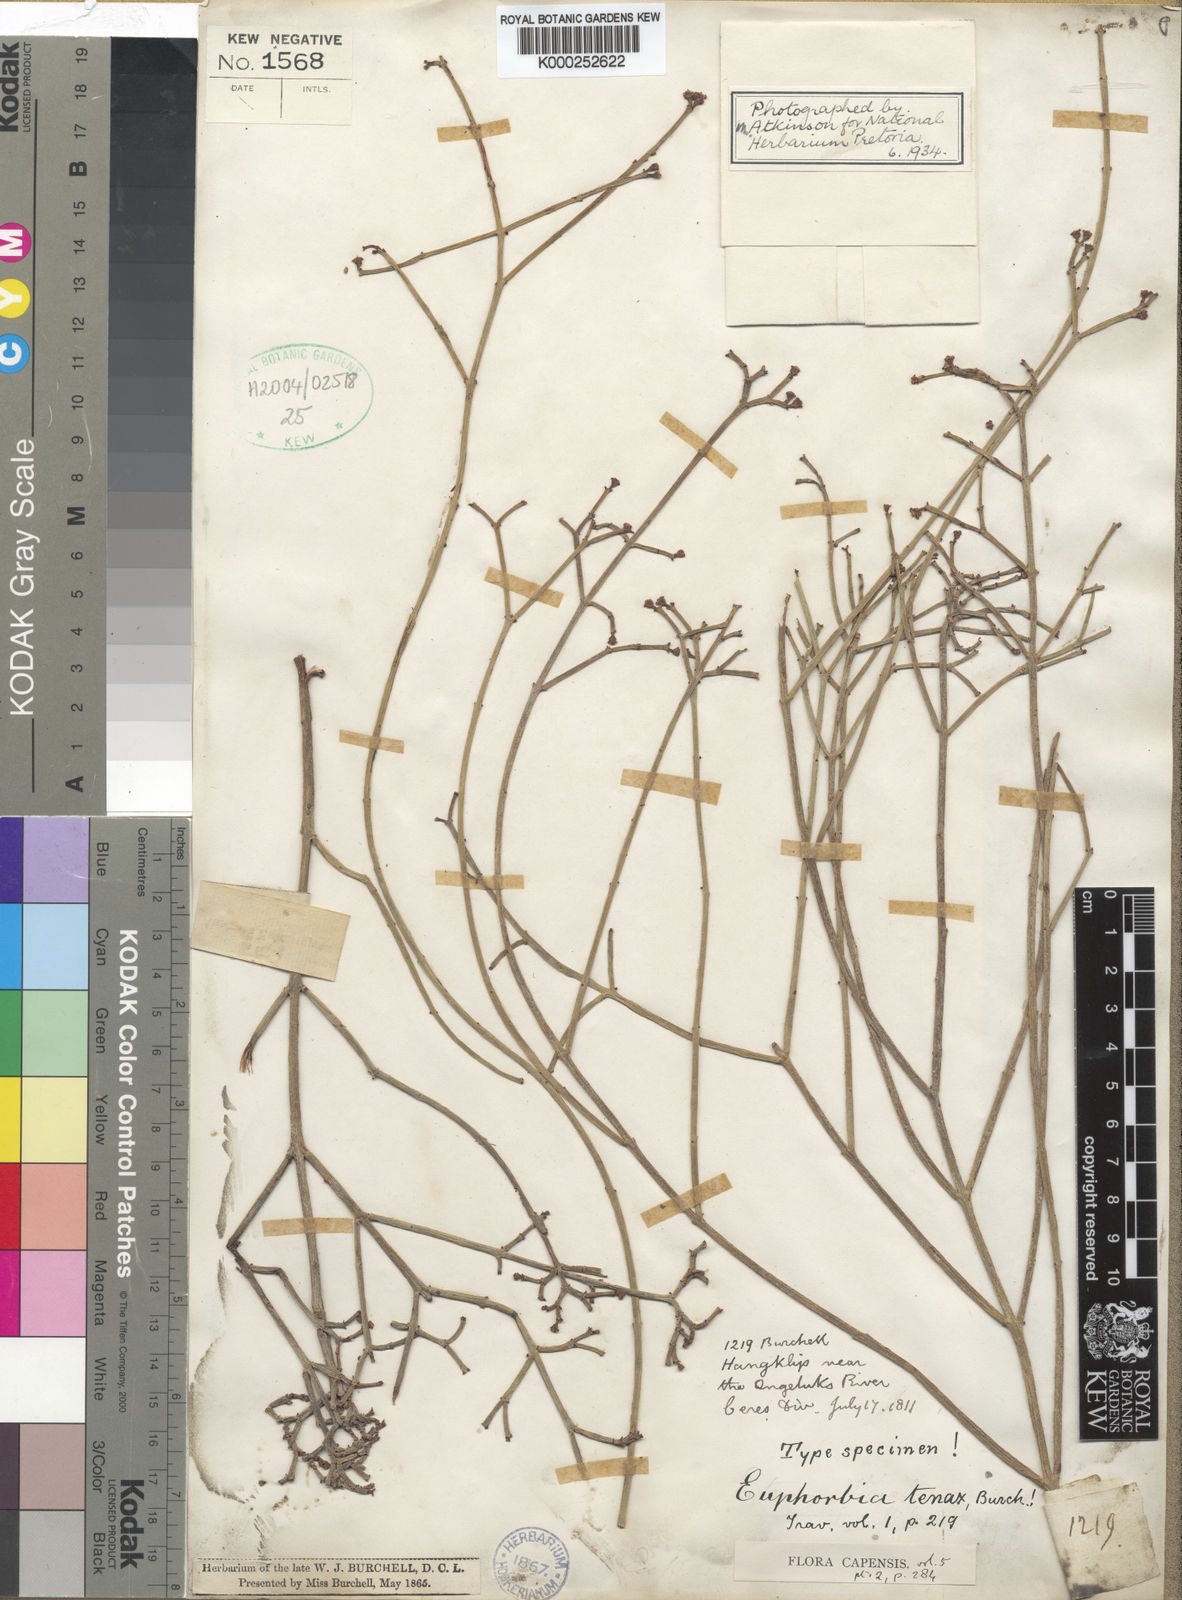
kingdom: Plantae
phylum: Tracheophyta
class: Magnoliopsida
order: Malpighiales
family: Euphorbiaceae
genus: Euphorbia
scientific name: Euphorbia tenax
